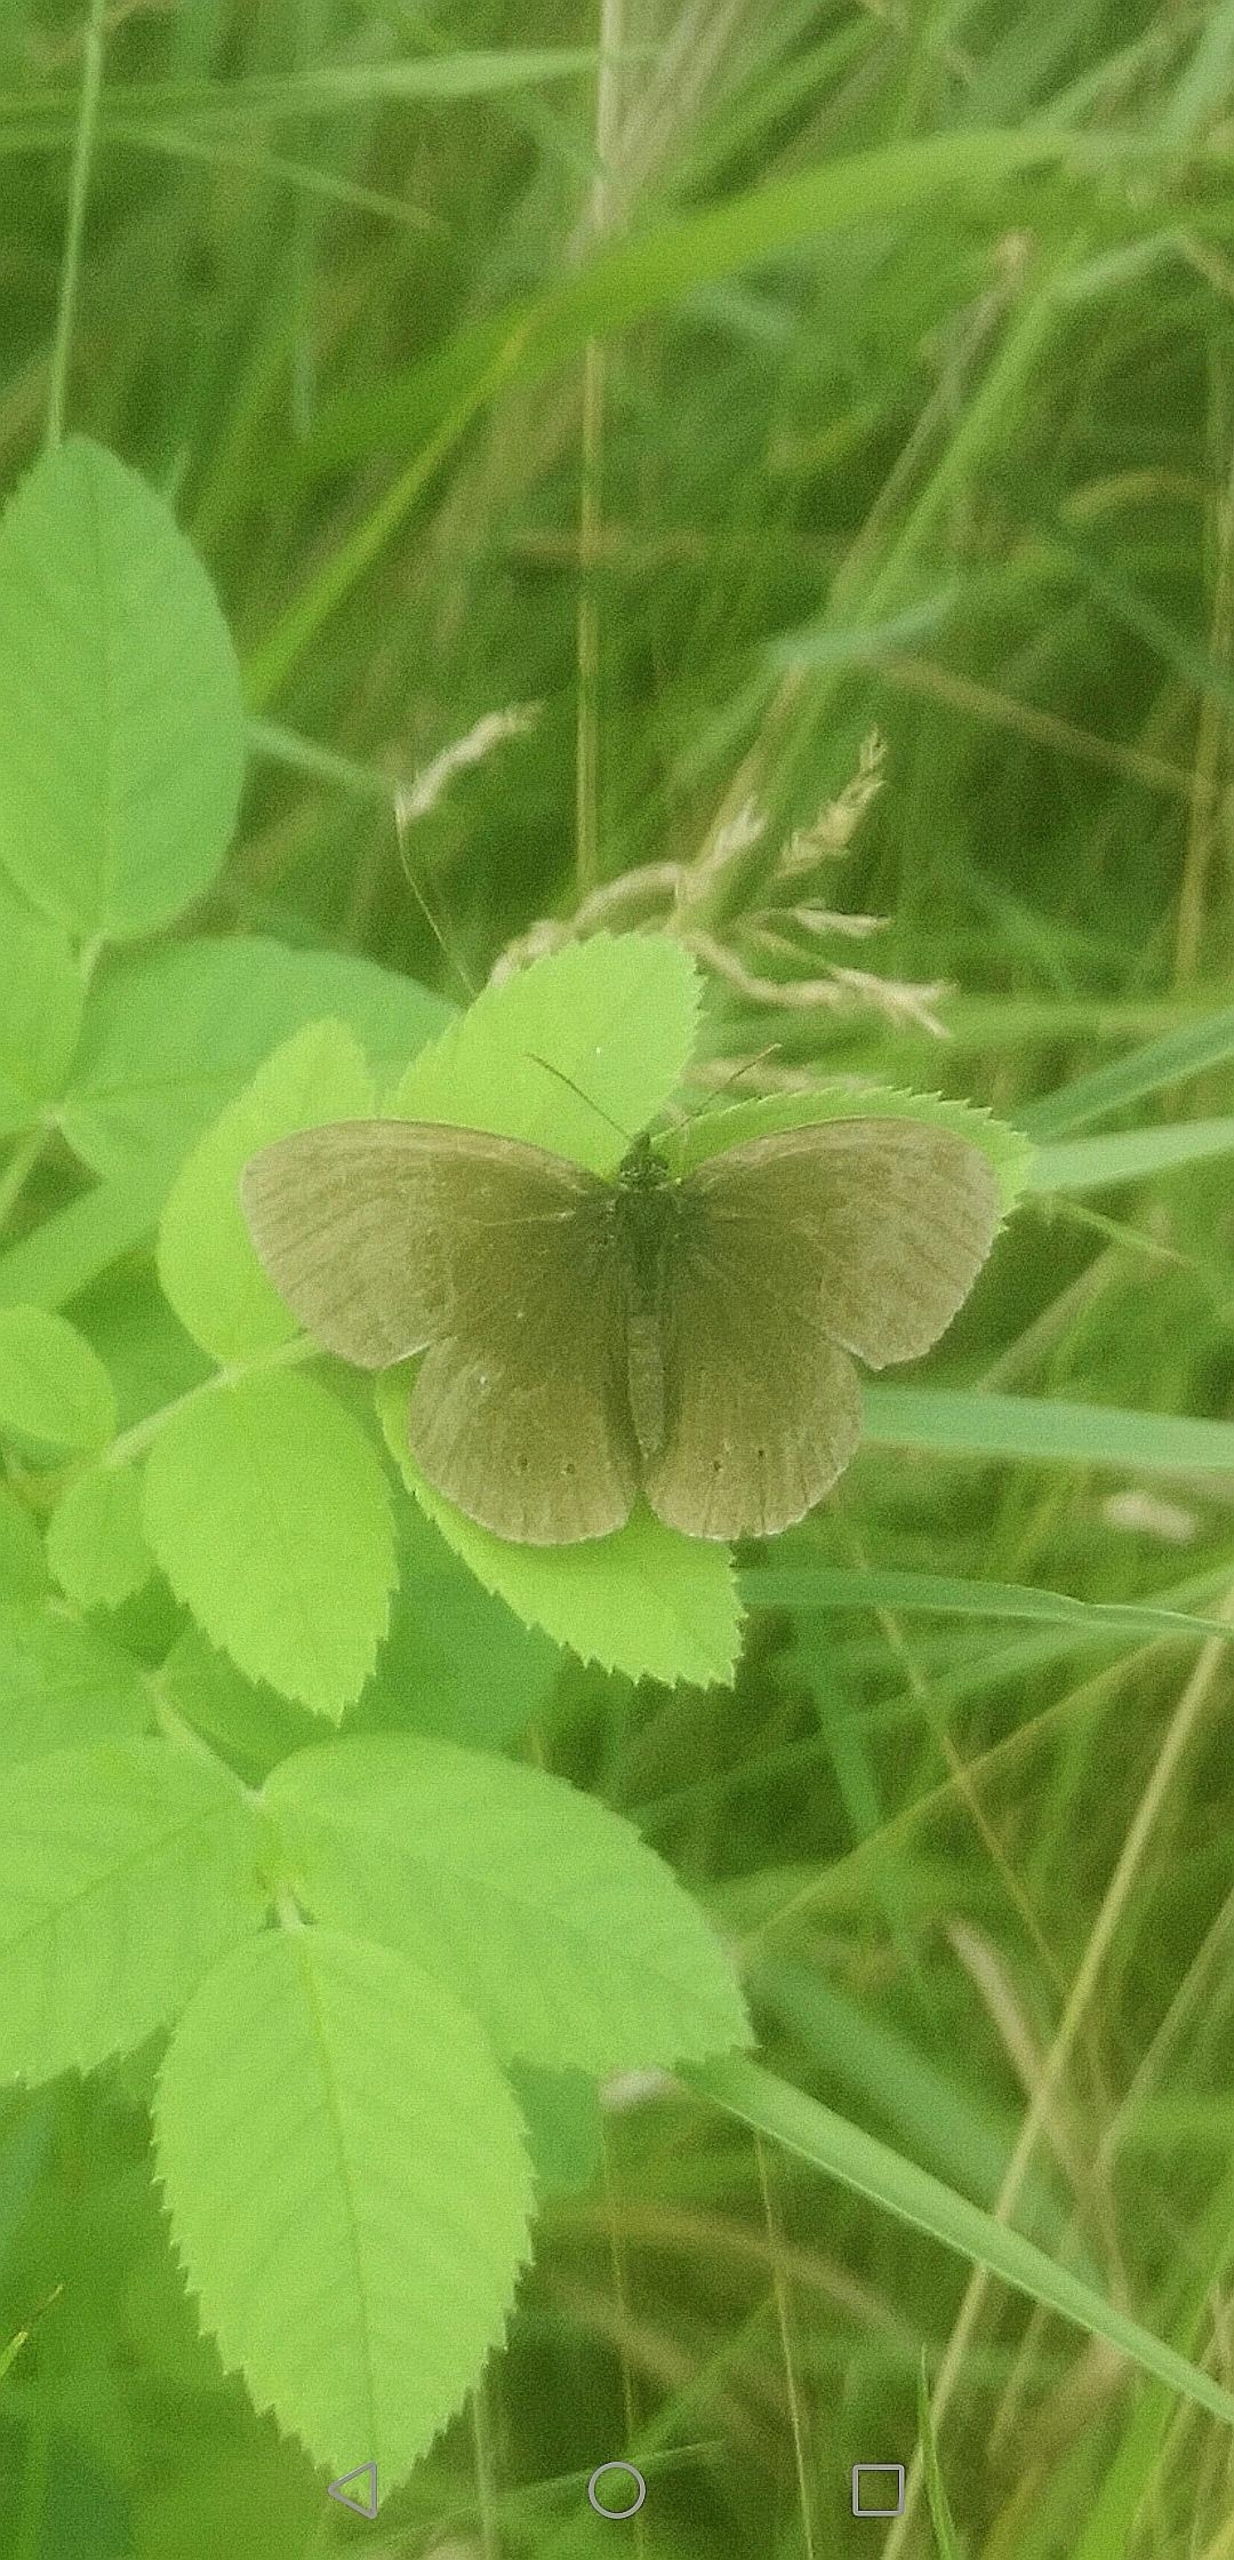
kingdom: Animalia
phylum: Arthropoda
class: Insecta
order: Lepidoptera
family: Nymphalidae
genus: Aphantopus
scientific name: Aphantopus hyperantus
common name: Engrandøje
